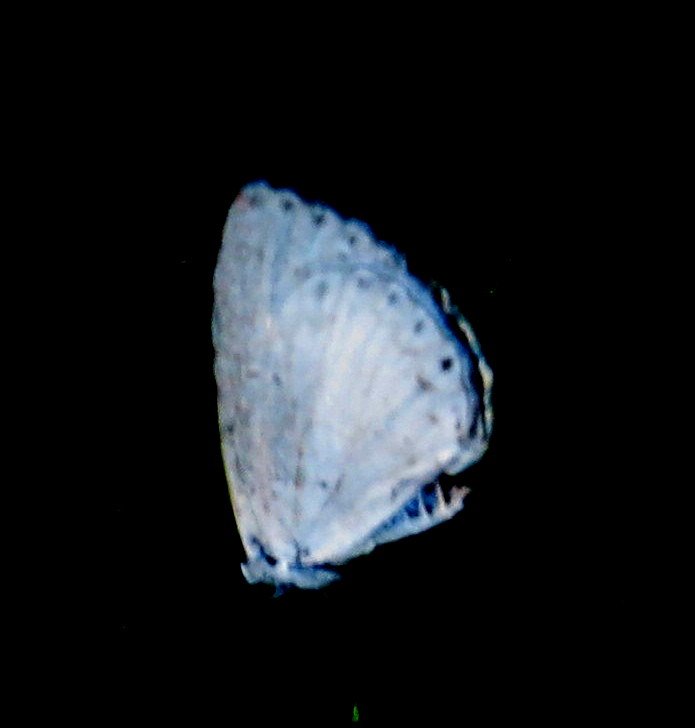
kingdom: Animalia
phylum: Arthropoda
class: Insecta
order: Lepidoptera
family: Lycaenidae
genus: Celastrina
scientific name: Celastrina
